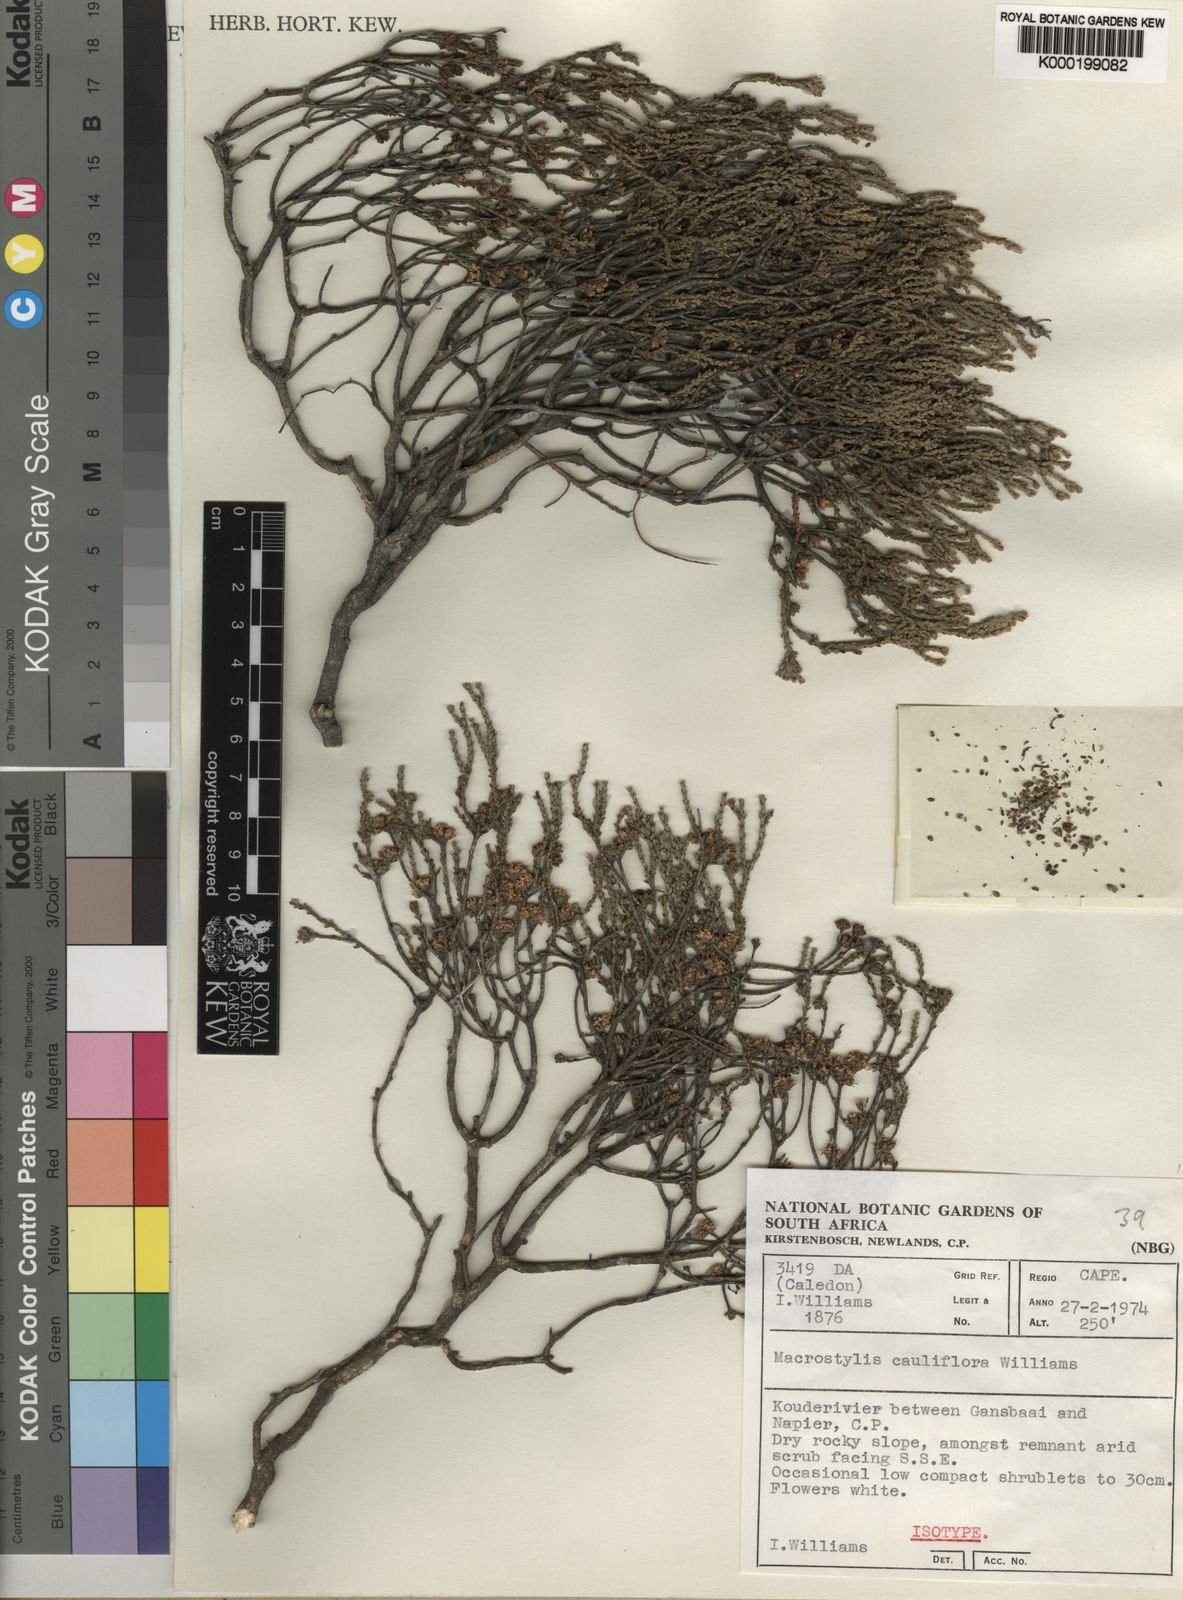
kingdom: Plantae
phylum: Tracheophyta
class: Magnoliopsida
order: Sapindales
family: Rutaceae
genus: Macrostylis
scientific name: Macrostylis cauliflora
